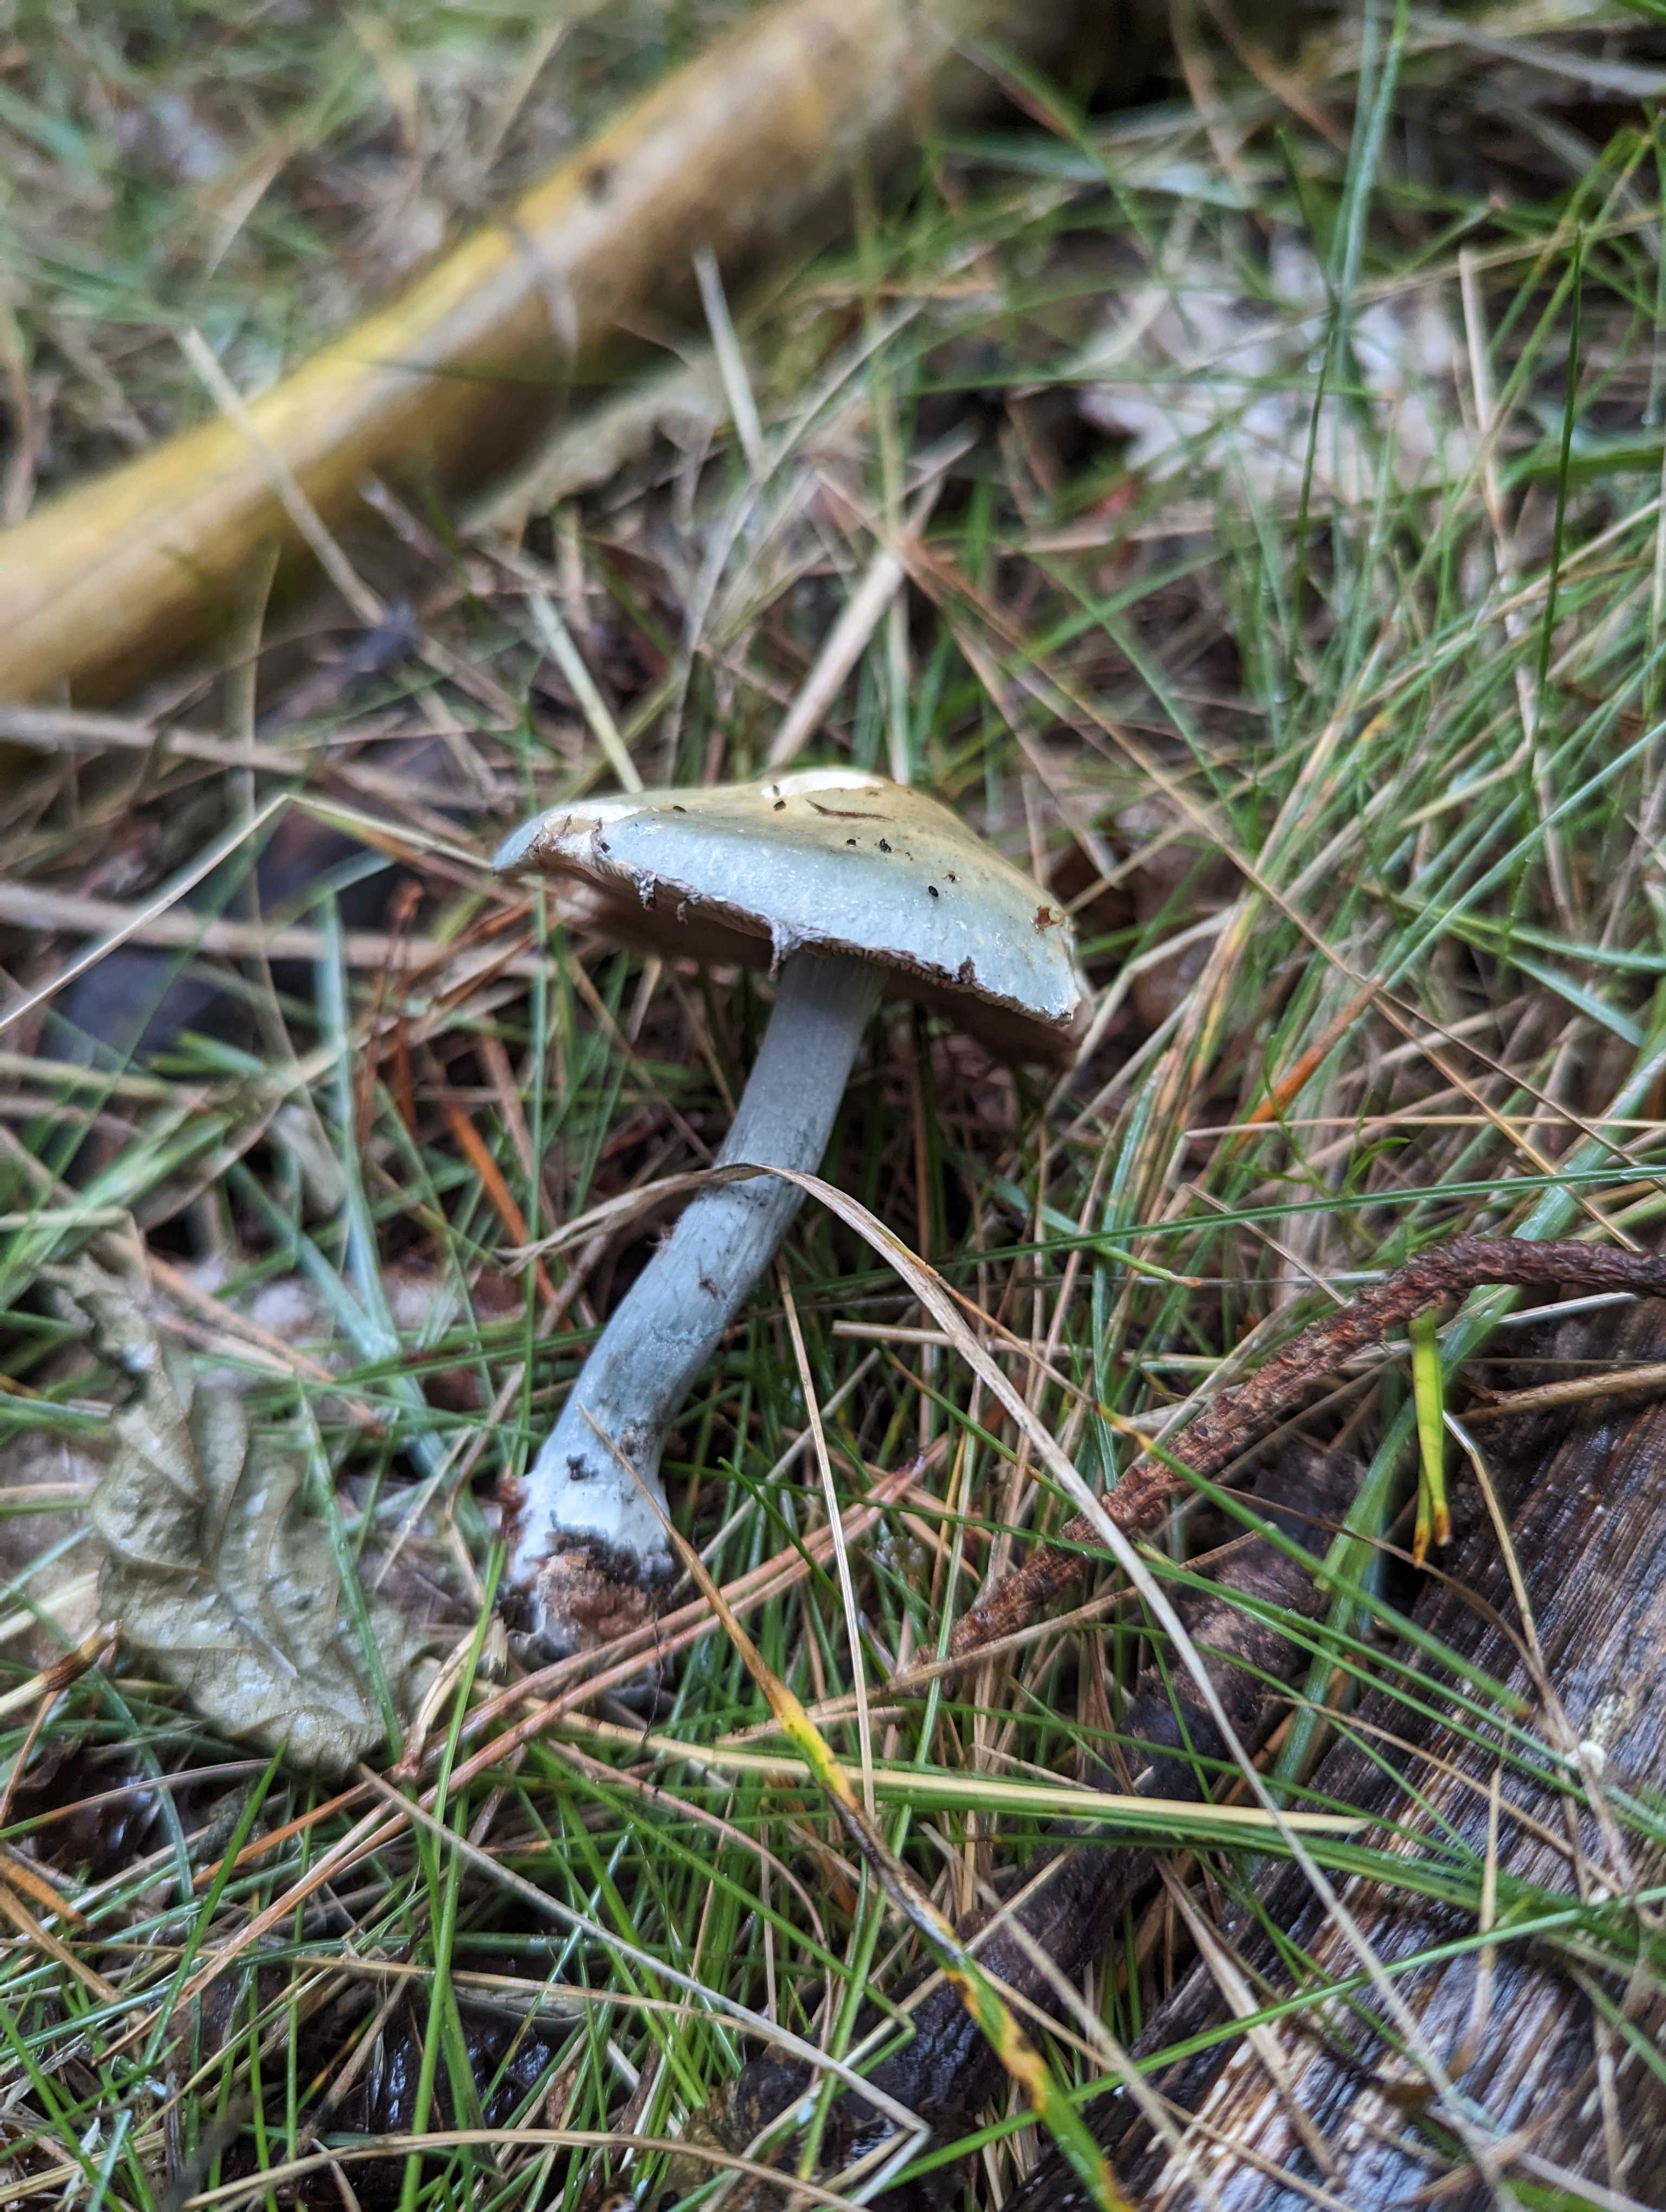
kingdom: Fungi
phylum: Basidiomycota
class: Agaricomycetes
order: Agaricales
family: Strophariaceae
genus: Stropharia
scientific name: Stropharia cyanea
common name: blågrøn bredblad
